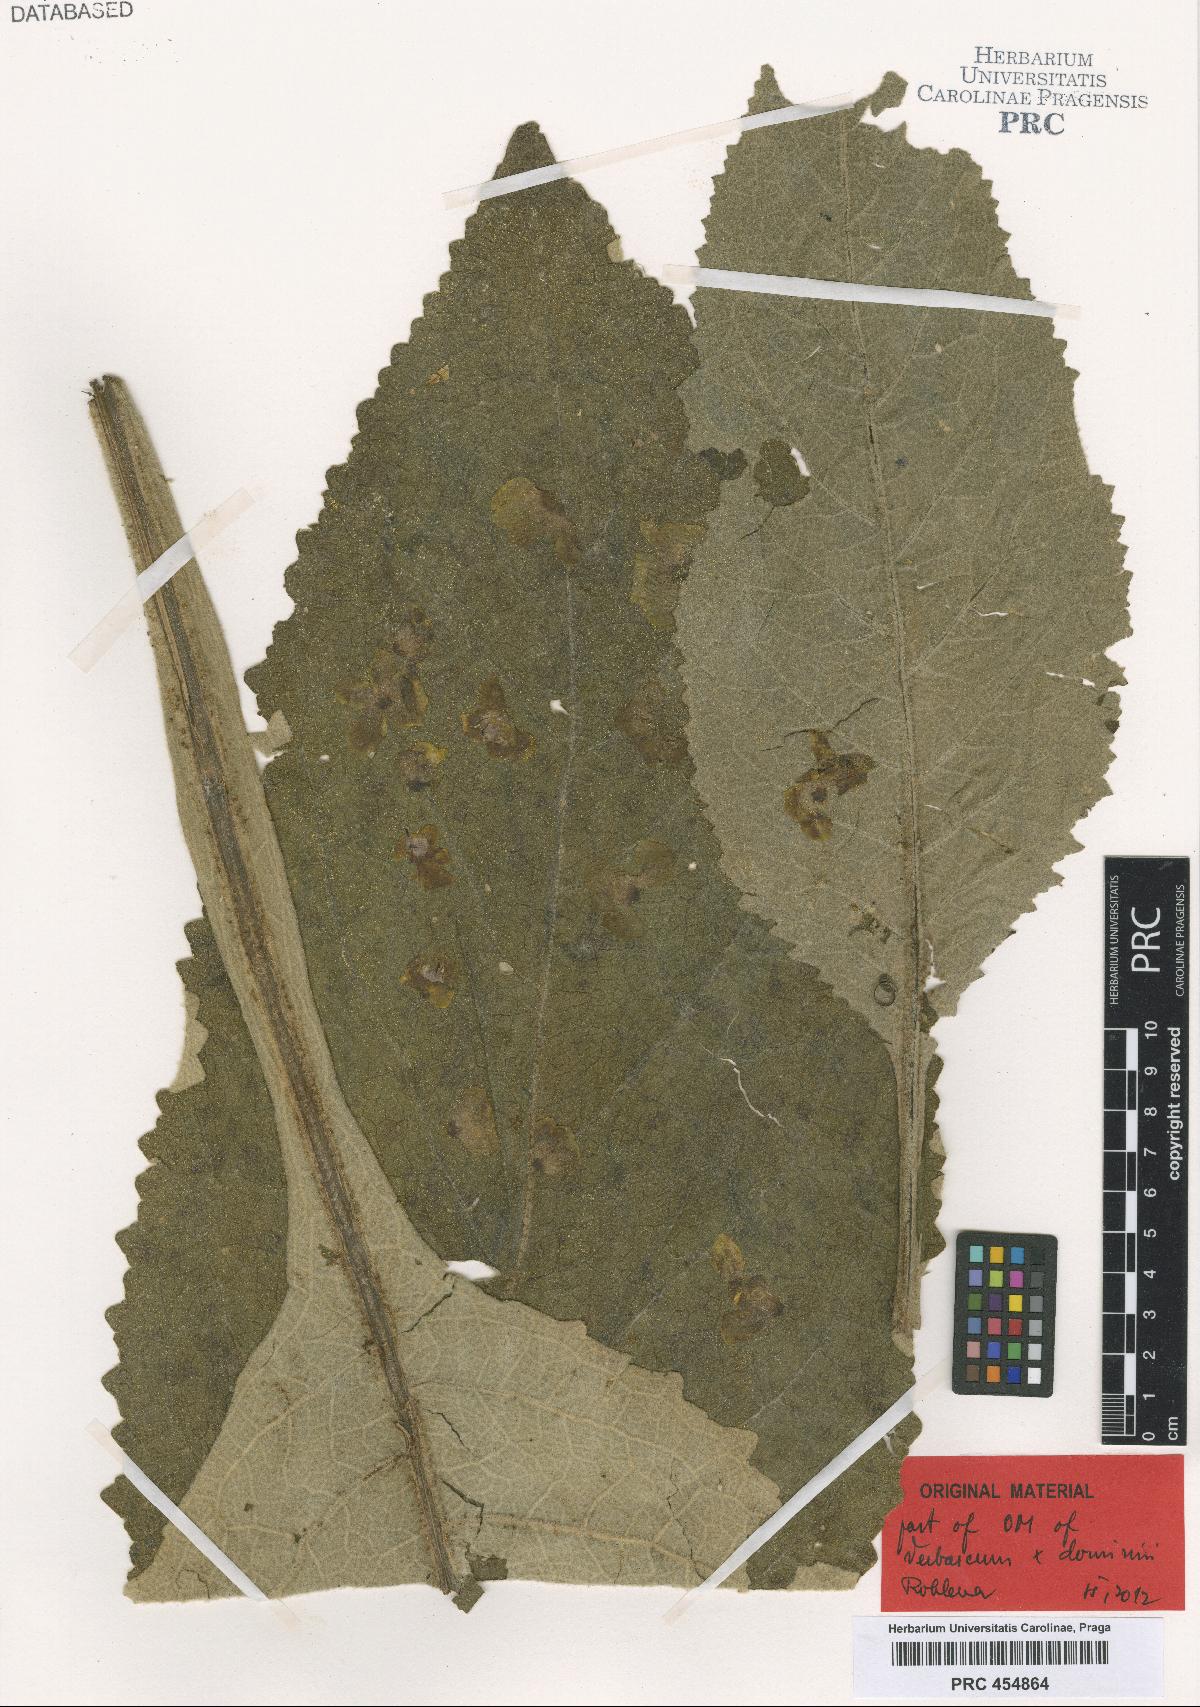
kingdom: Plantae
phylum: Tracheophyta
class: Magnoliopsida
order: Lamiales
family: Scrophulariaceae
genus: Verbascum
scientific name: Verbascum dominii
